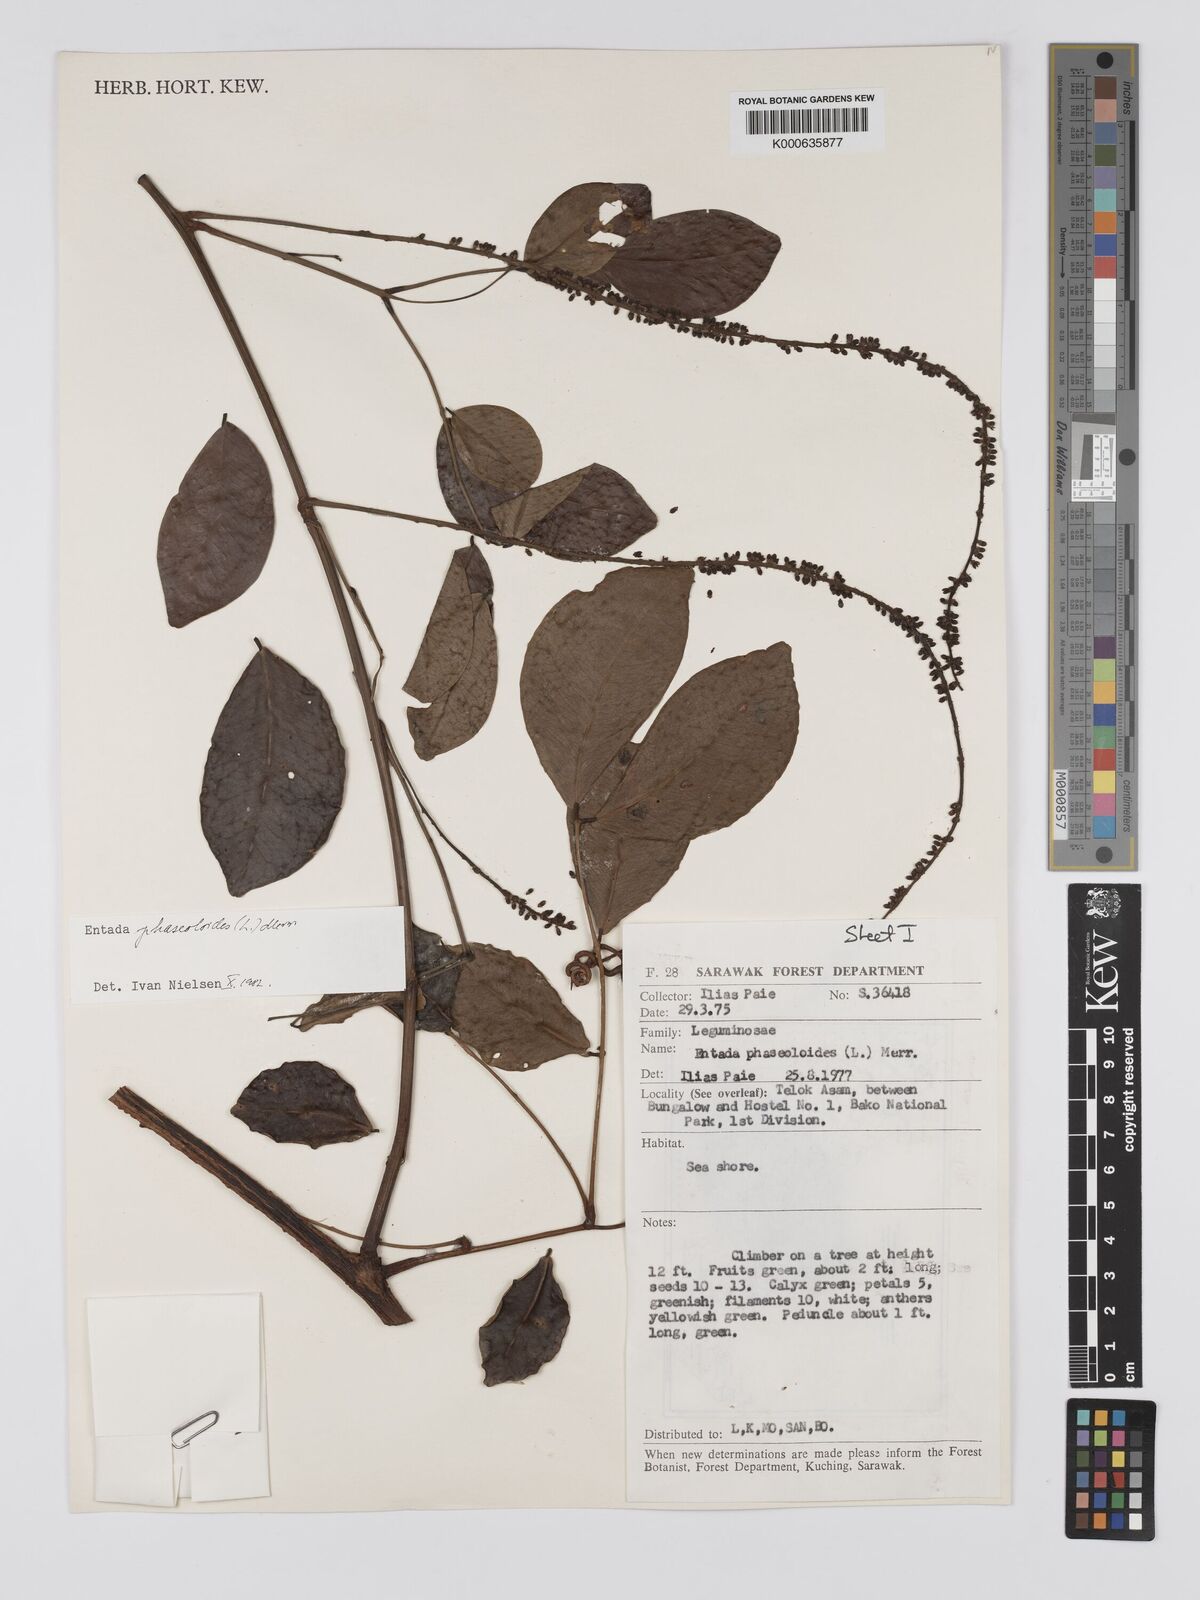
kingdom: Plantae
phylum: Tracheophyta
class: Magnoliopsida
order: Fabales
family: Fabaceae
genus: Entada
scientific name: Entada phaseoloides
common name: Matchbox-bean
